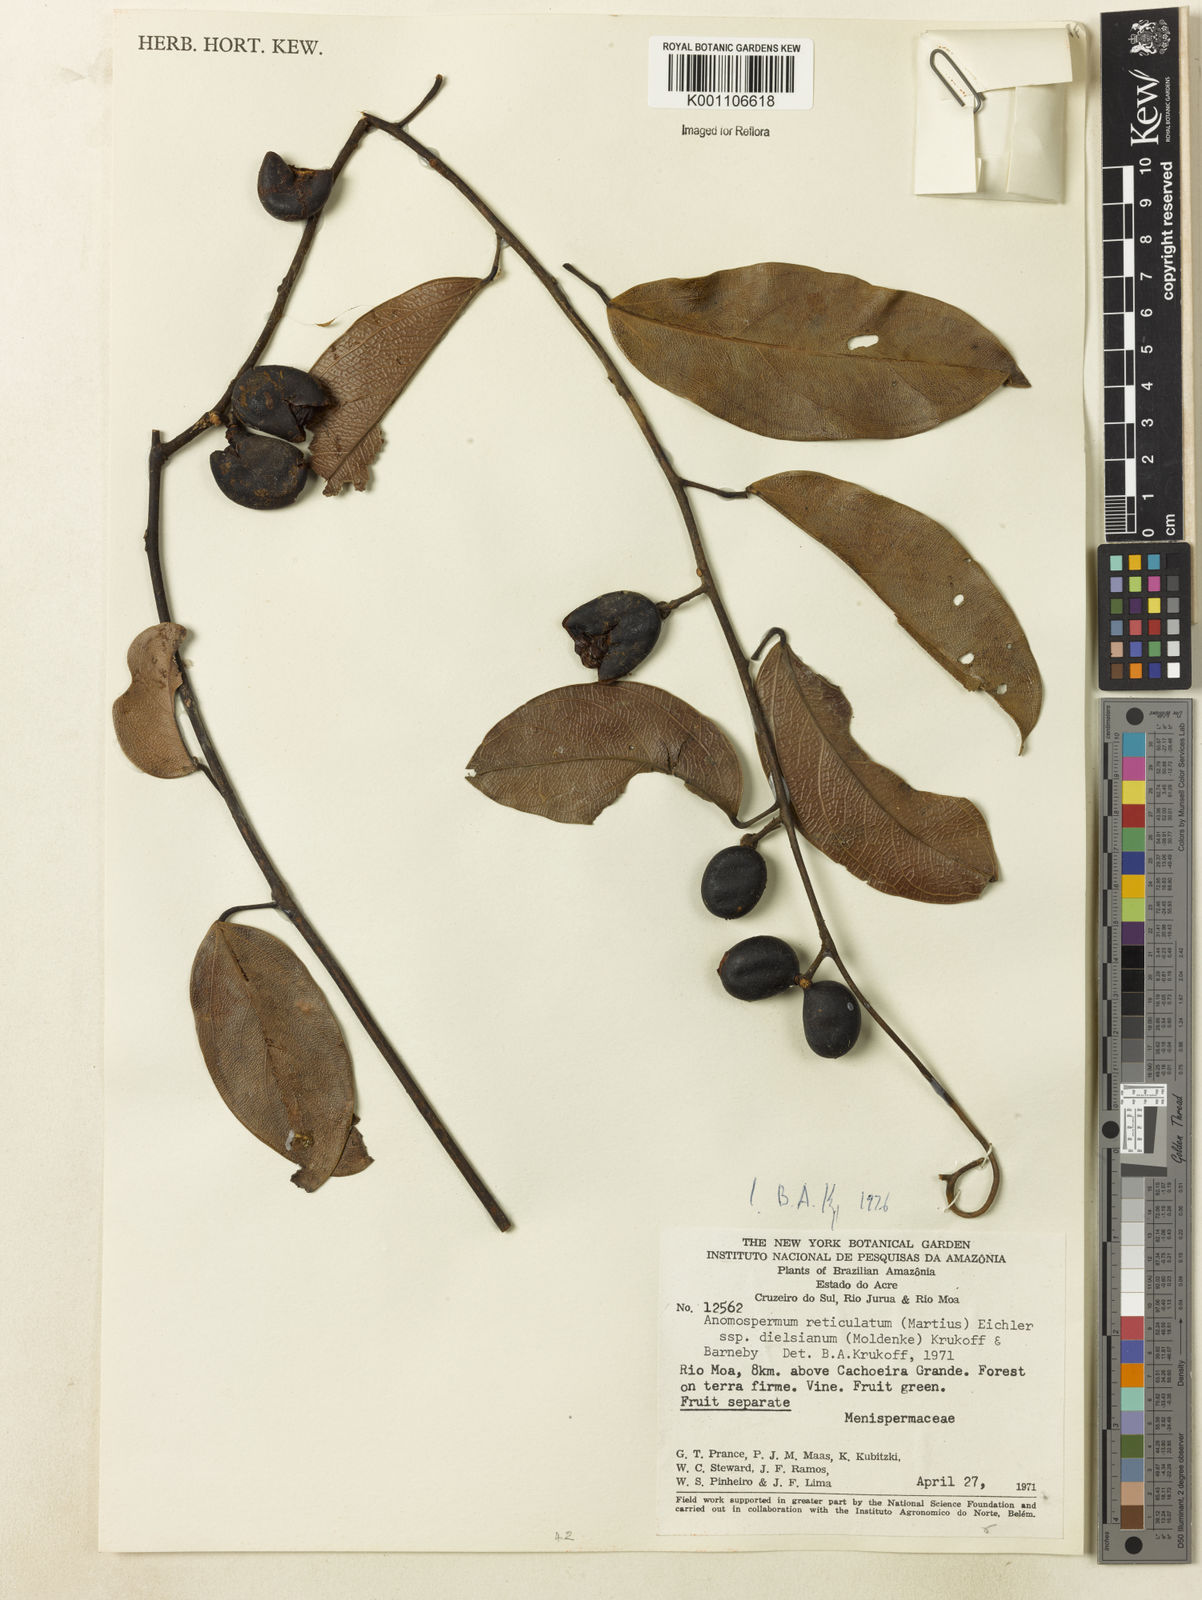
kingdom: Plantae
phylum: Tracheophyta
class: Magnoliopsida
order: Ranunculales
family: Menispermaceae
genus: Anomospermum
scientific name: Anomospermum reticulatum
